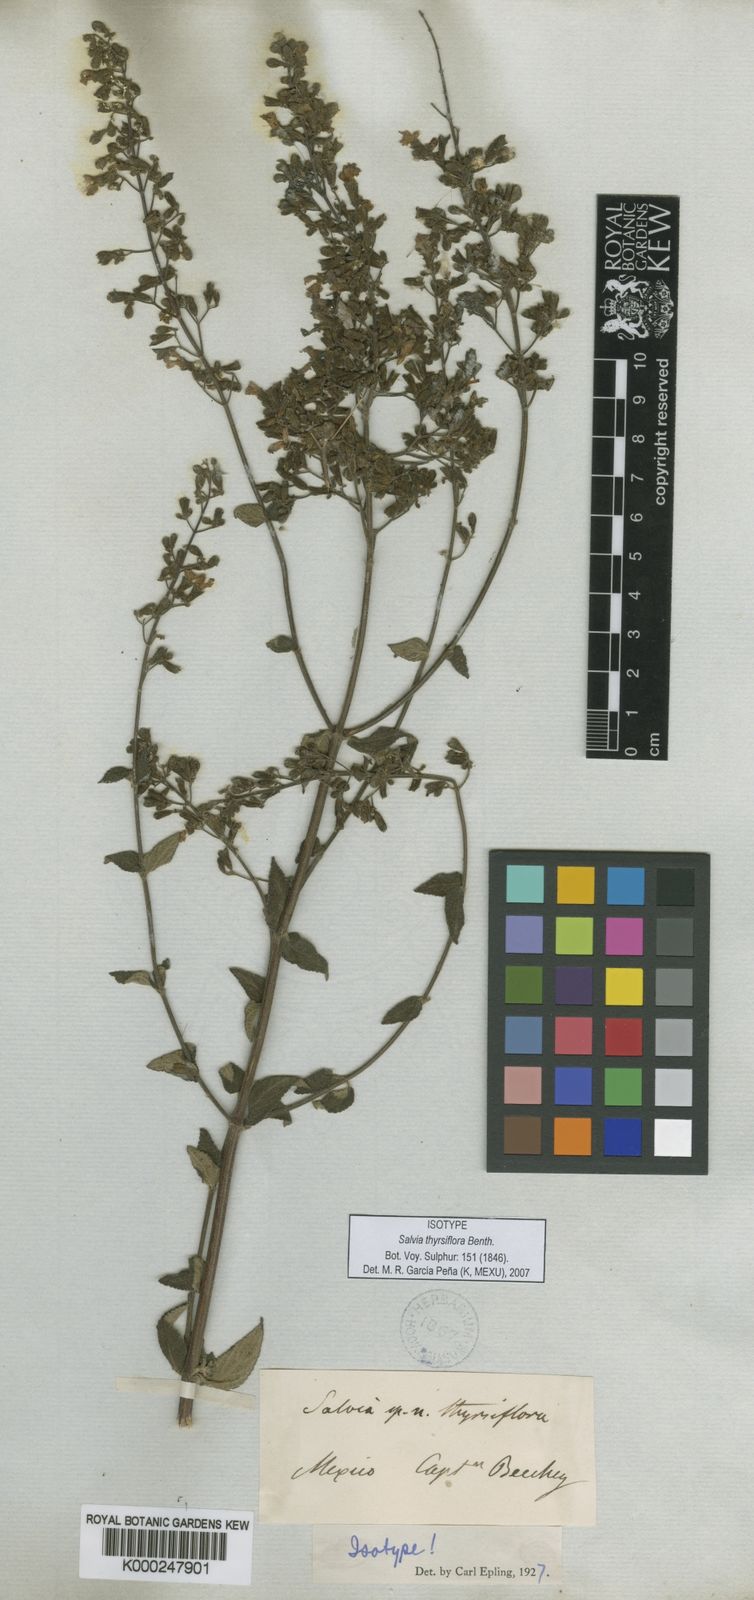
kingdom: Plantae
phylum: Tracheophyta
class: Magnoliopsida
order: Lamiales
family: Lamiaceae
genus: Salvia
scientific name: Salvia thyrsiflora
